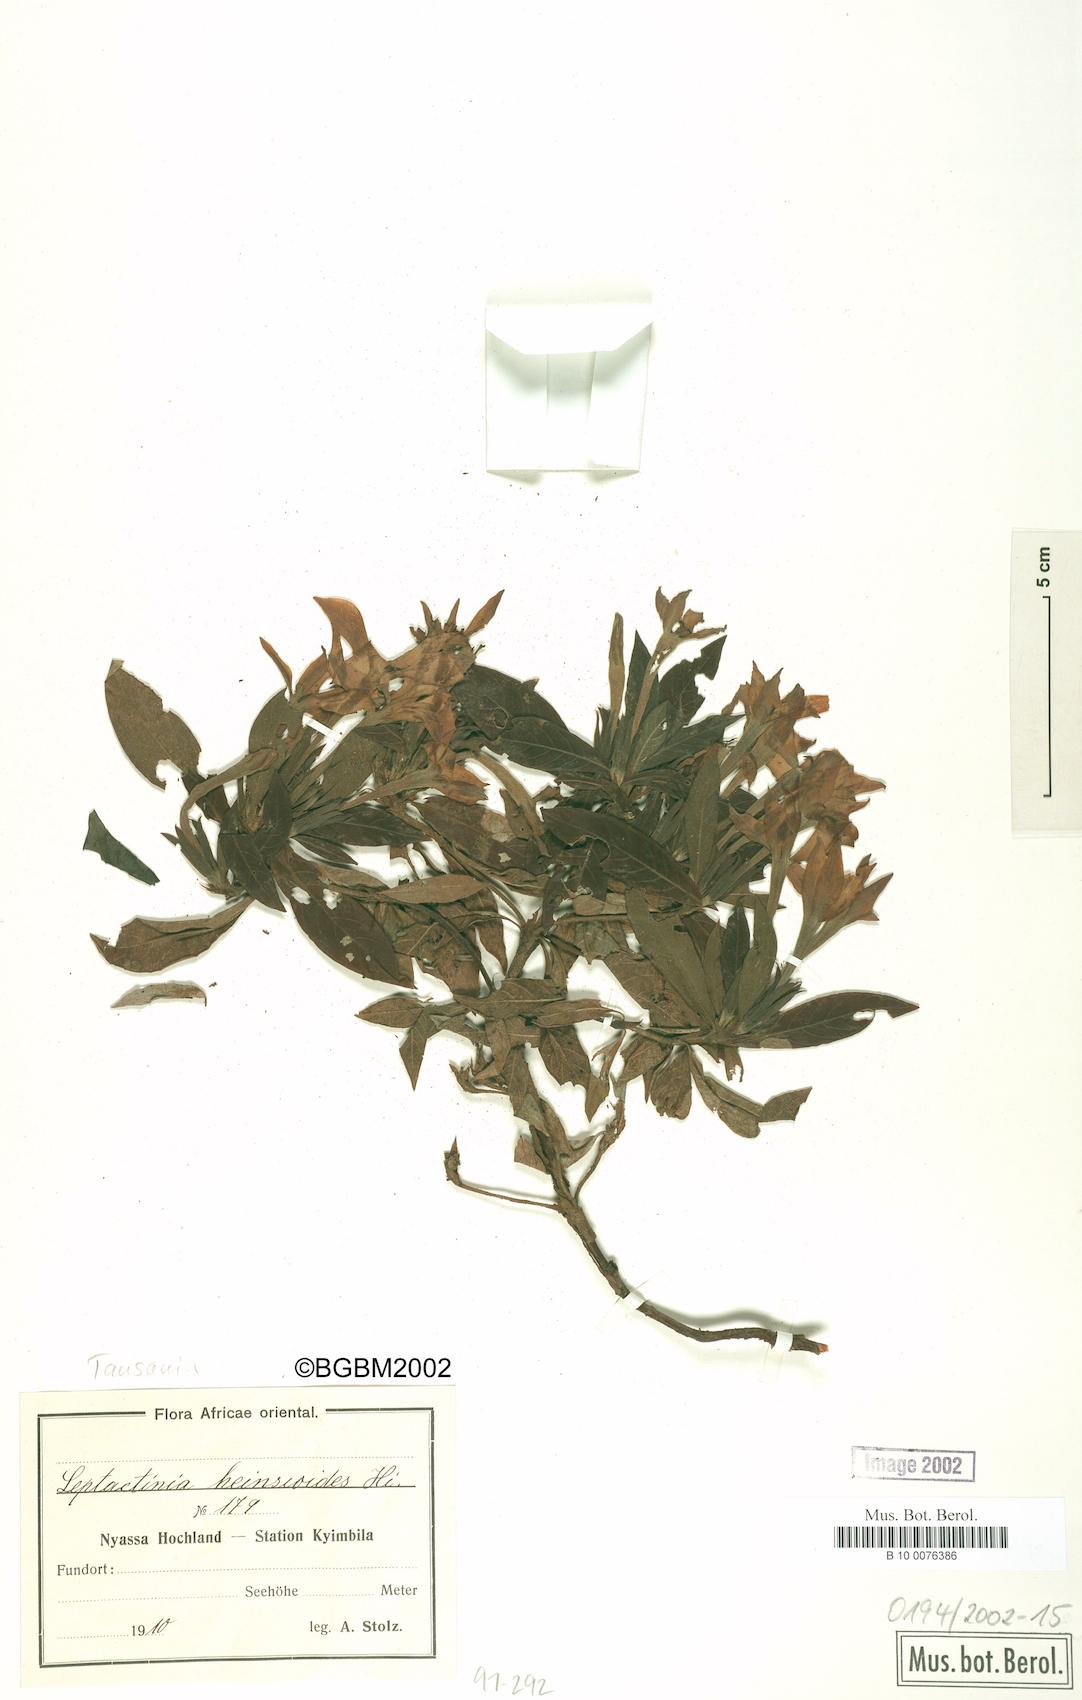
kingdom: Plantae
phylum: Tracheophyta
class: Magnoliopsida
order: Gentianales
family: Rubiaceae
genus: Leptactina
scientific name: Leptactina benguelensis
